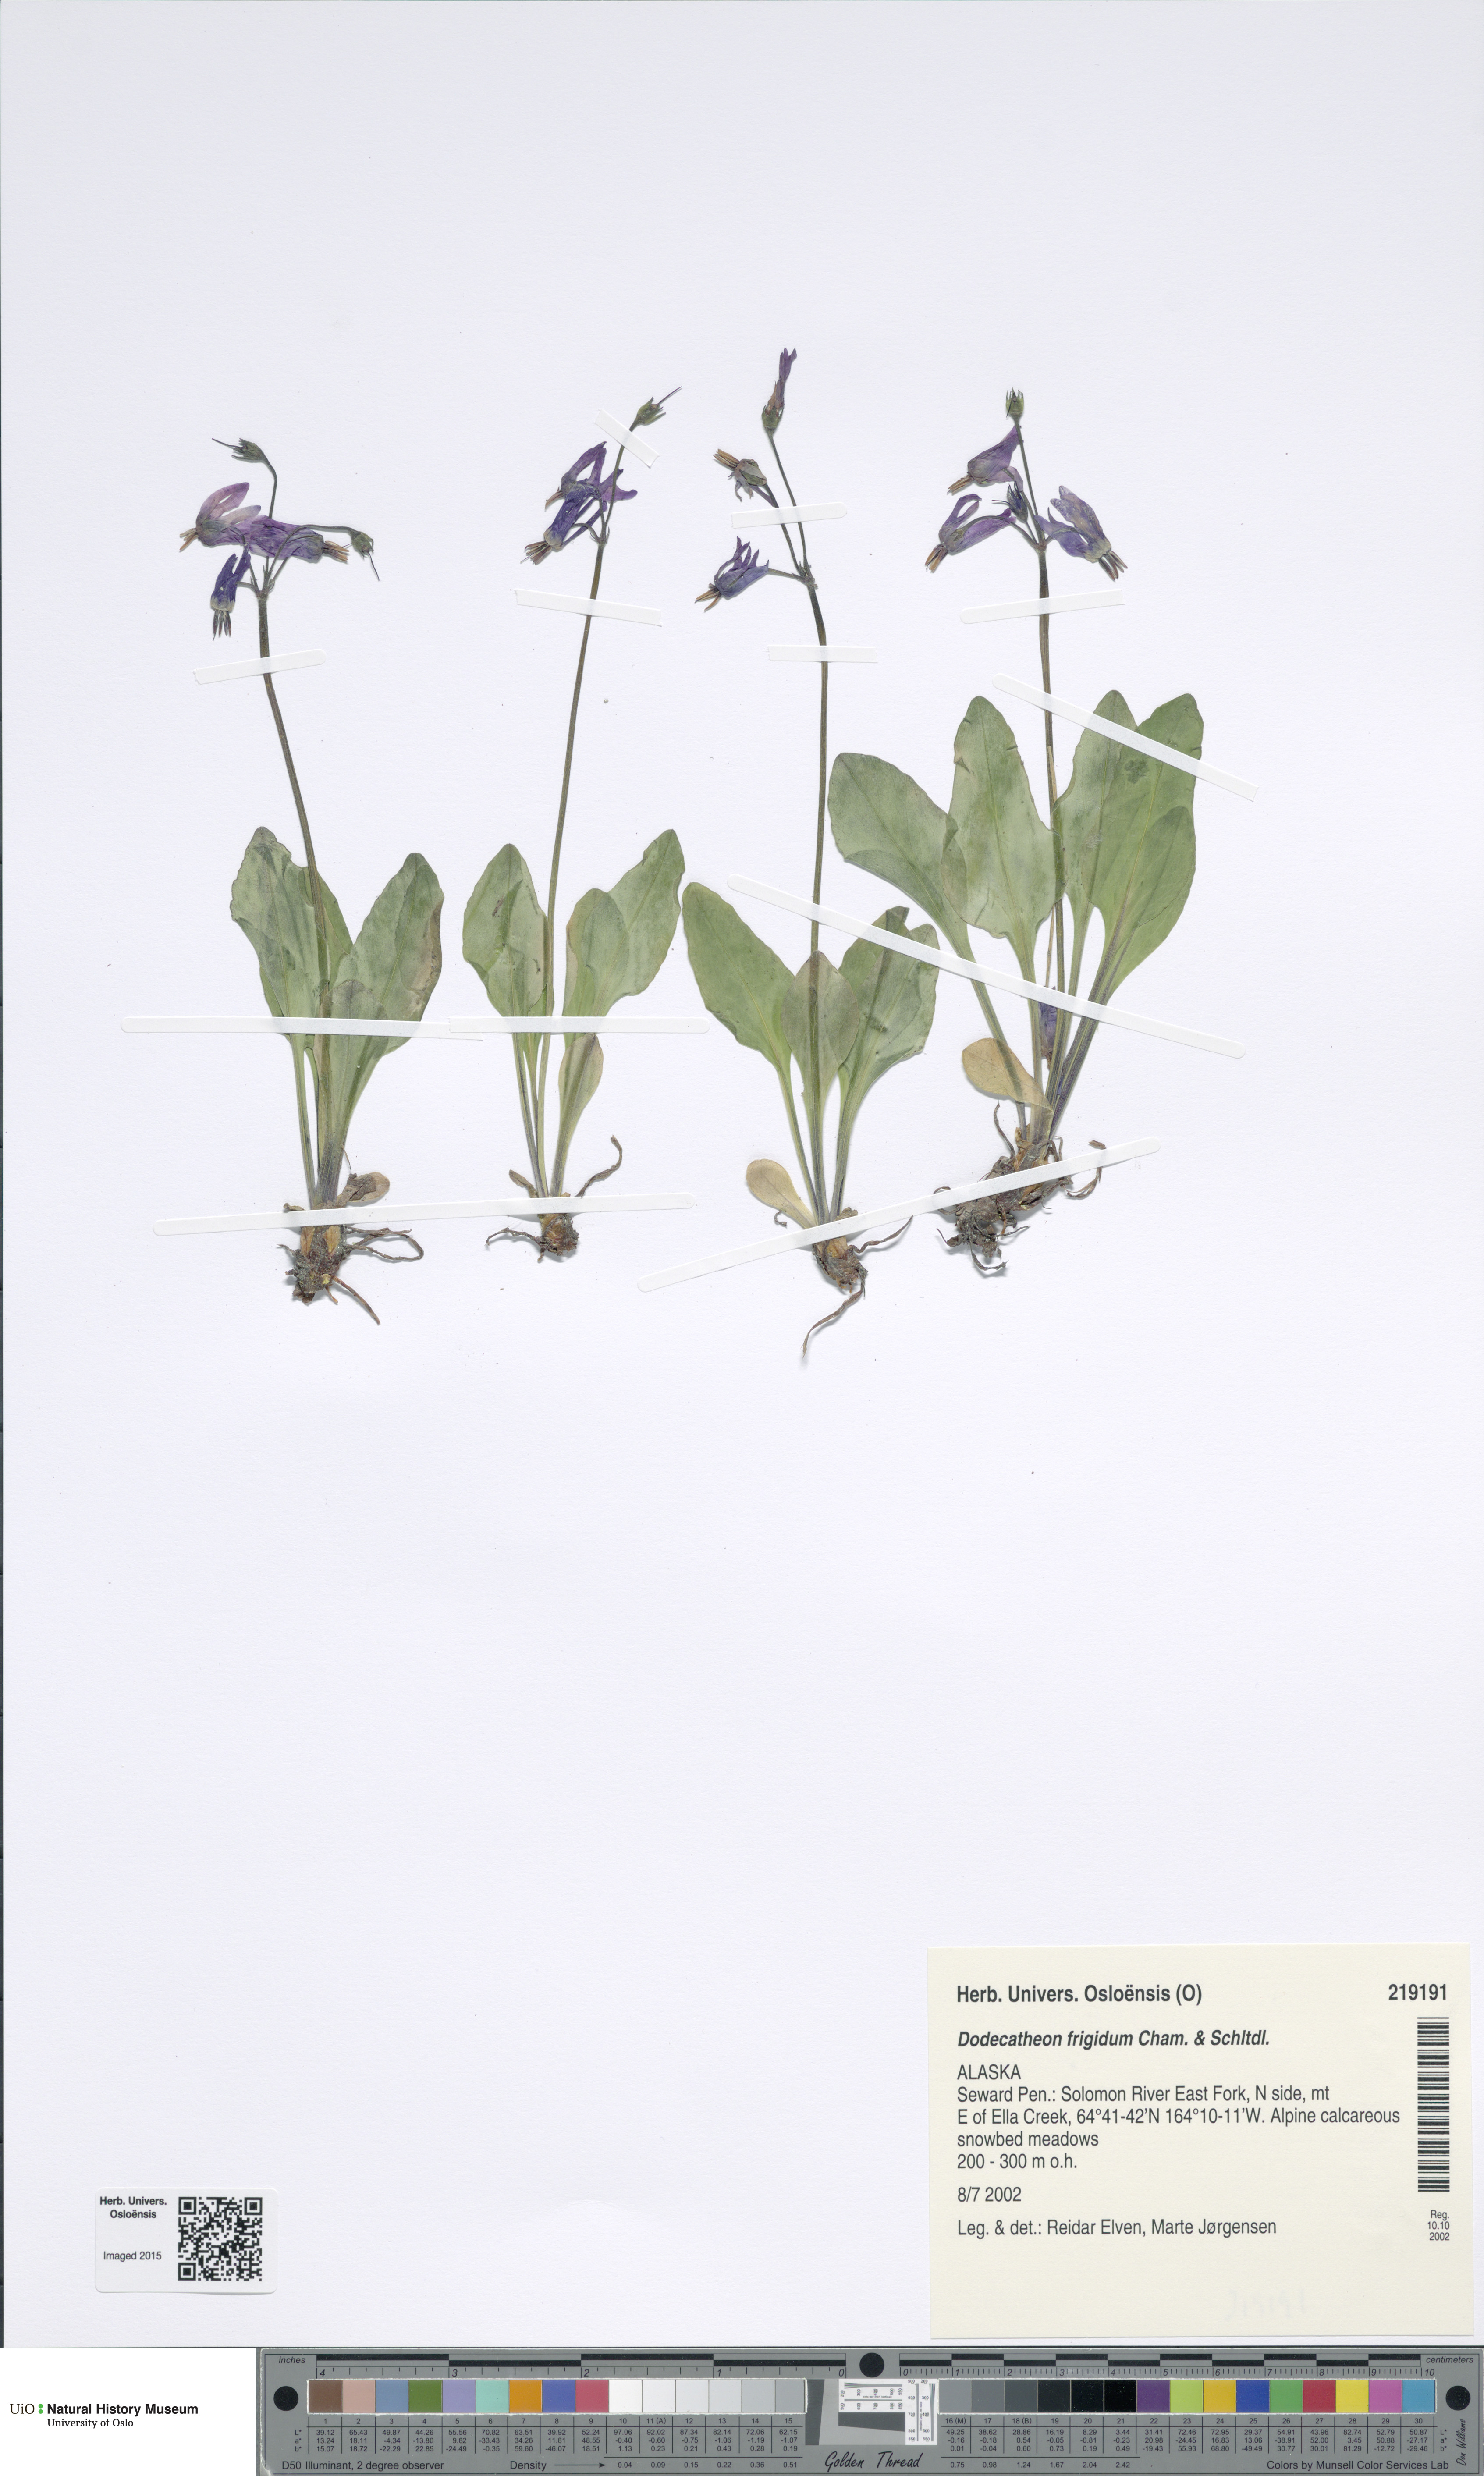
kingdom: Plantae
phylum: Tracheophyta
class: Magnoliopsida
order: Ericales
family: Primulaceae
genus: Dodecatheon
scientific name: Dodecatheon frigidum
